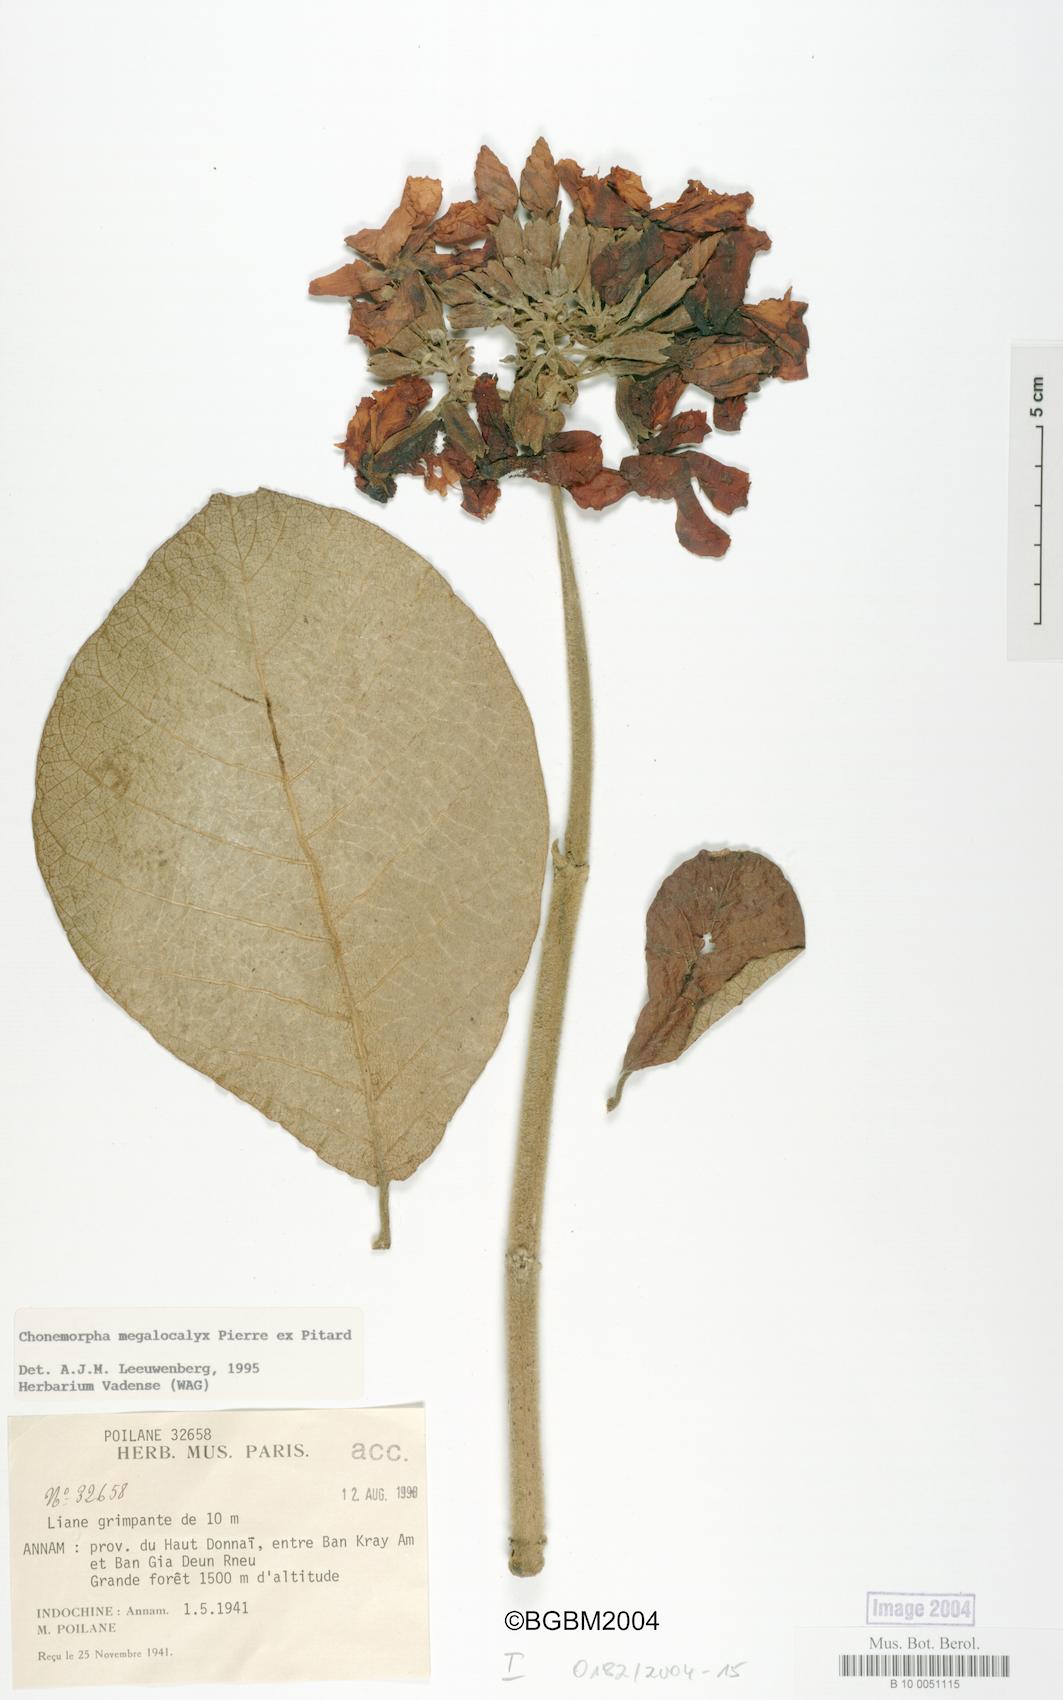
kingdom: Plantae
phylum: Tracheophyta
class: Magnoliopsida
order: Gentianales
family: Apocynaceae
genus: Chonemorpha
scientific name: Chonemorpha megacalyx
